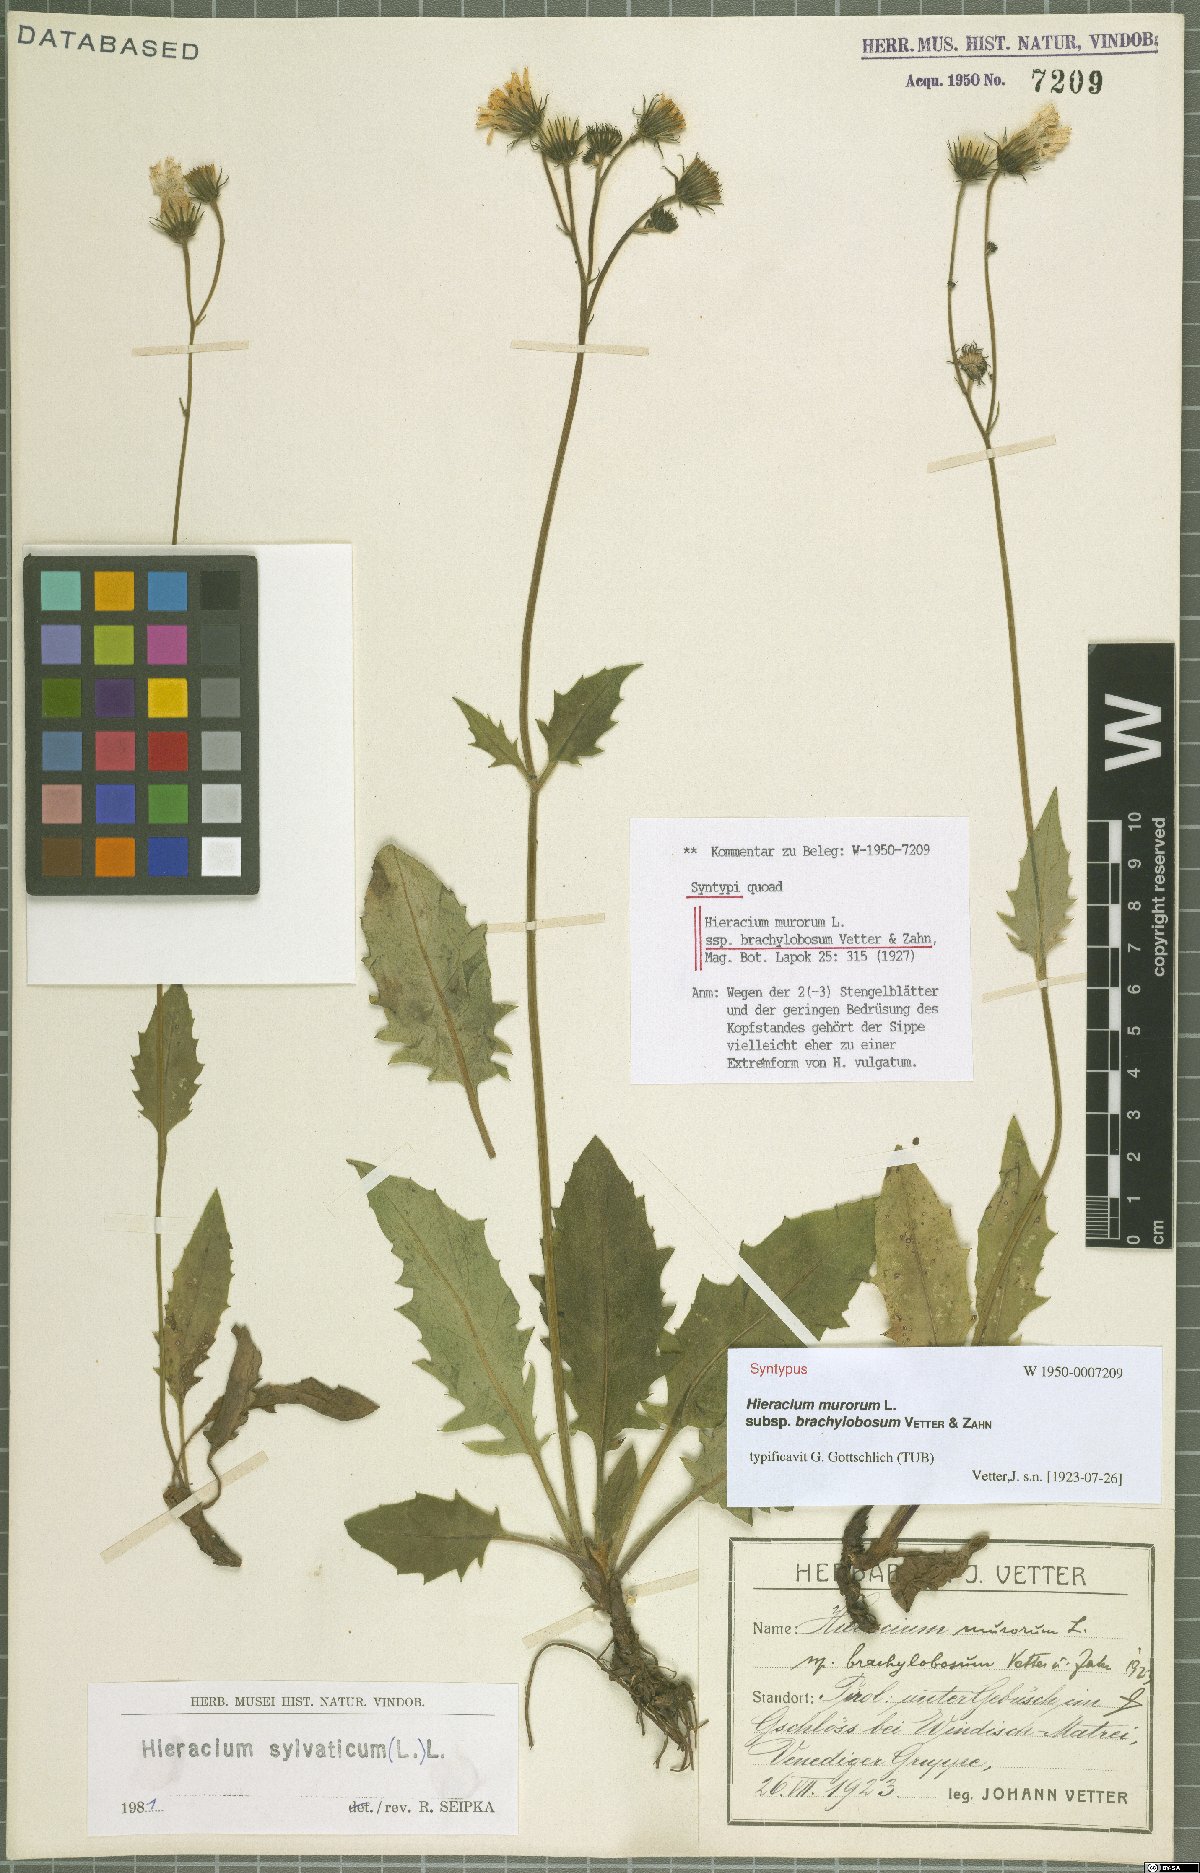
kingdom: Plantae
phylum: Tracheophyta
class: Magnoliopsida
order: Asterales
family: Asteraceae
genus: Hieracium
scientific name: Hieracium murorum
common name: Wall hawkweed
